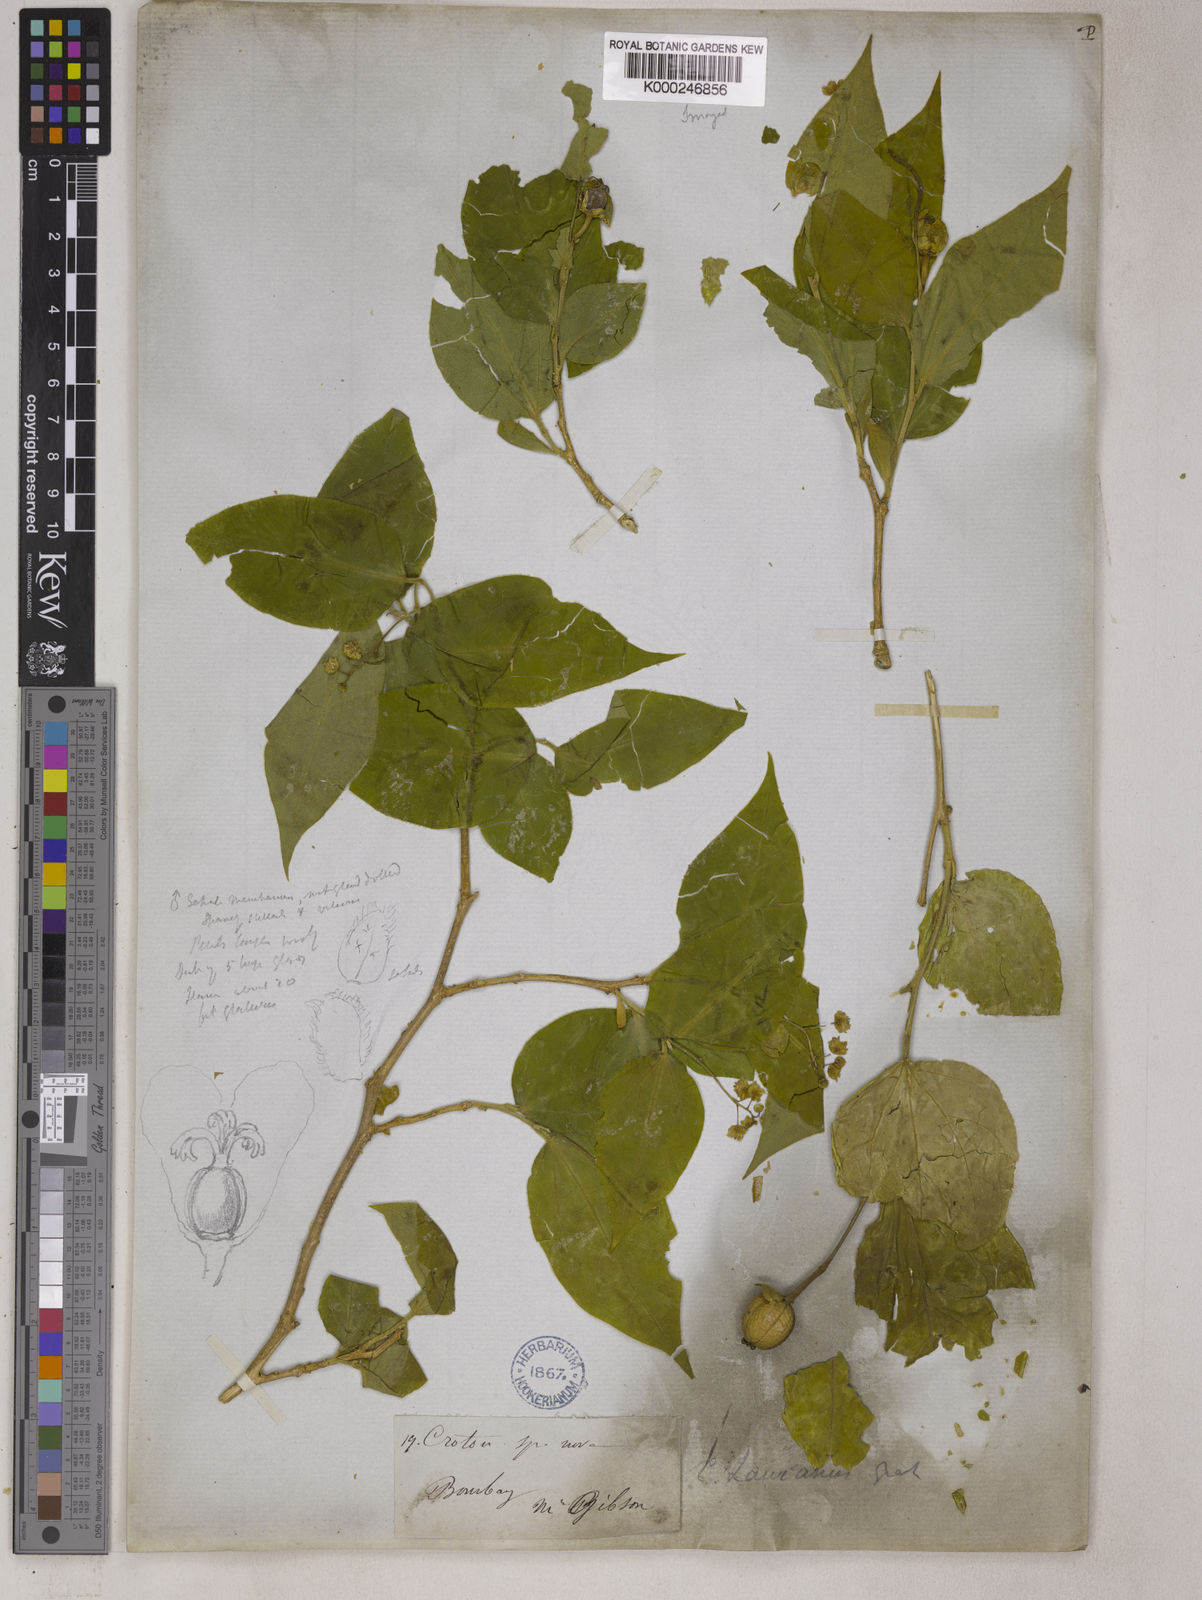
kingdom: Plantae
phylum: Tracheophyta
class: Magnoliopsida
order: Malpighiales
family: Euphorbiaceae
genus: Croton
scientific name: Croton lawianus
